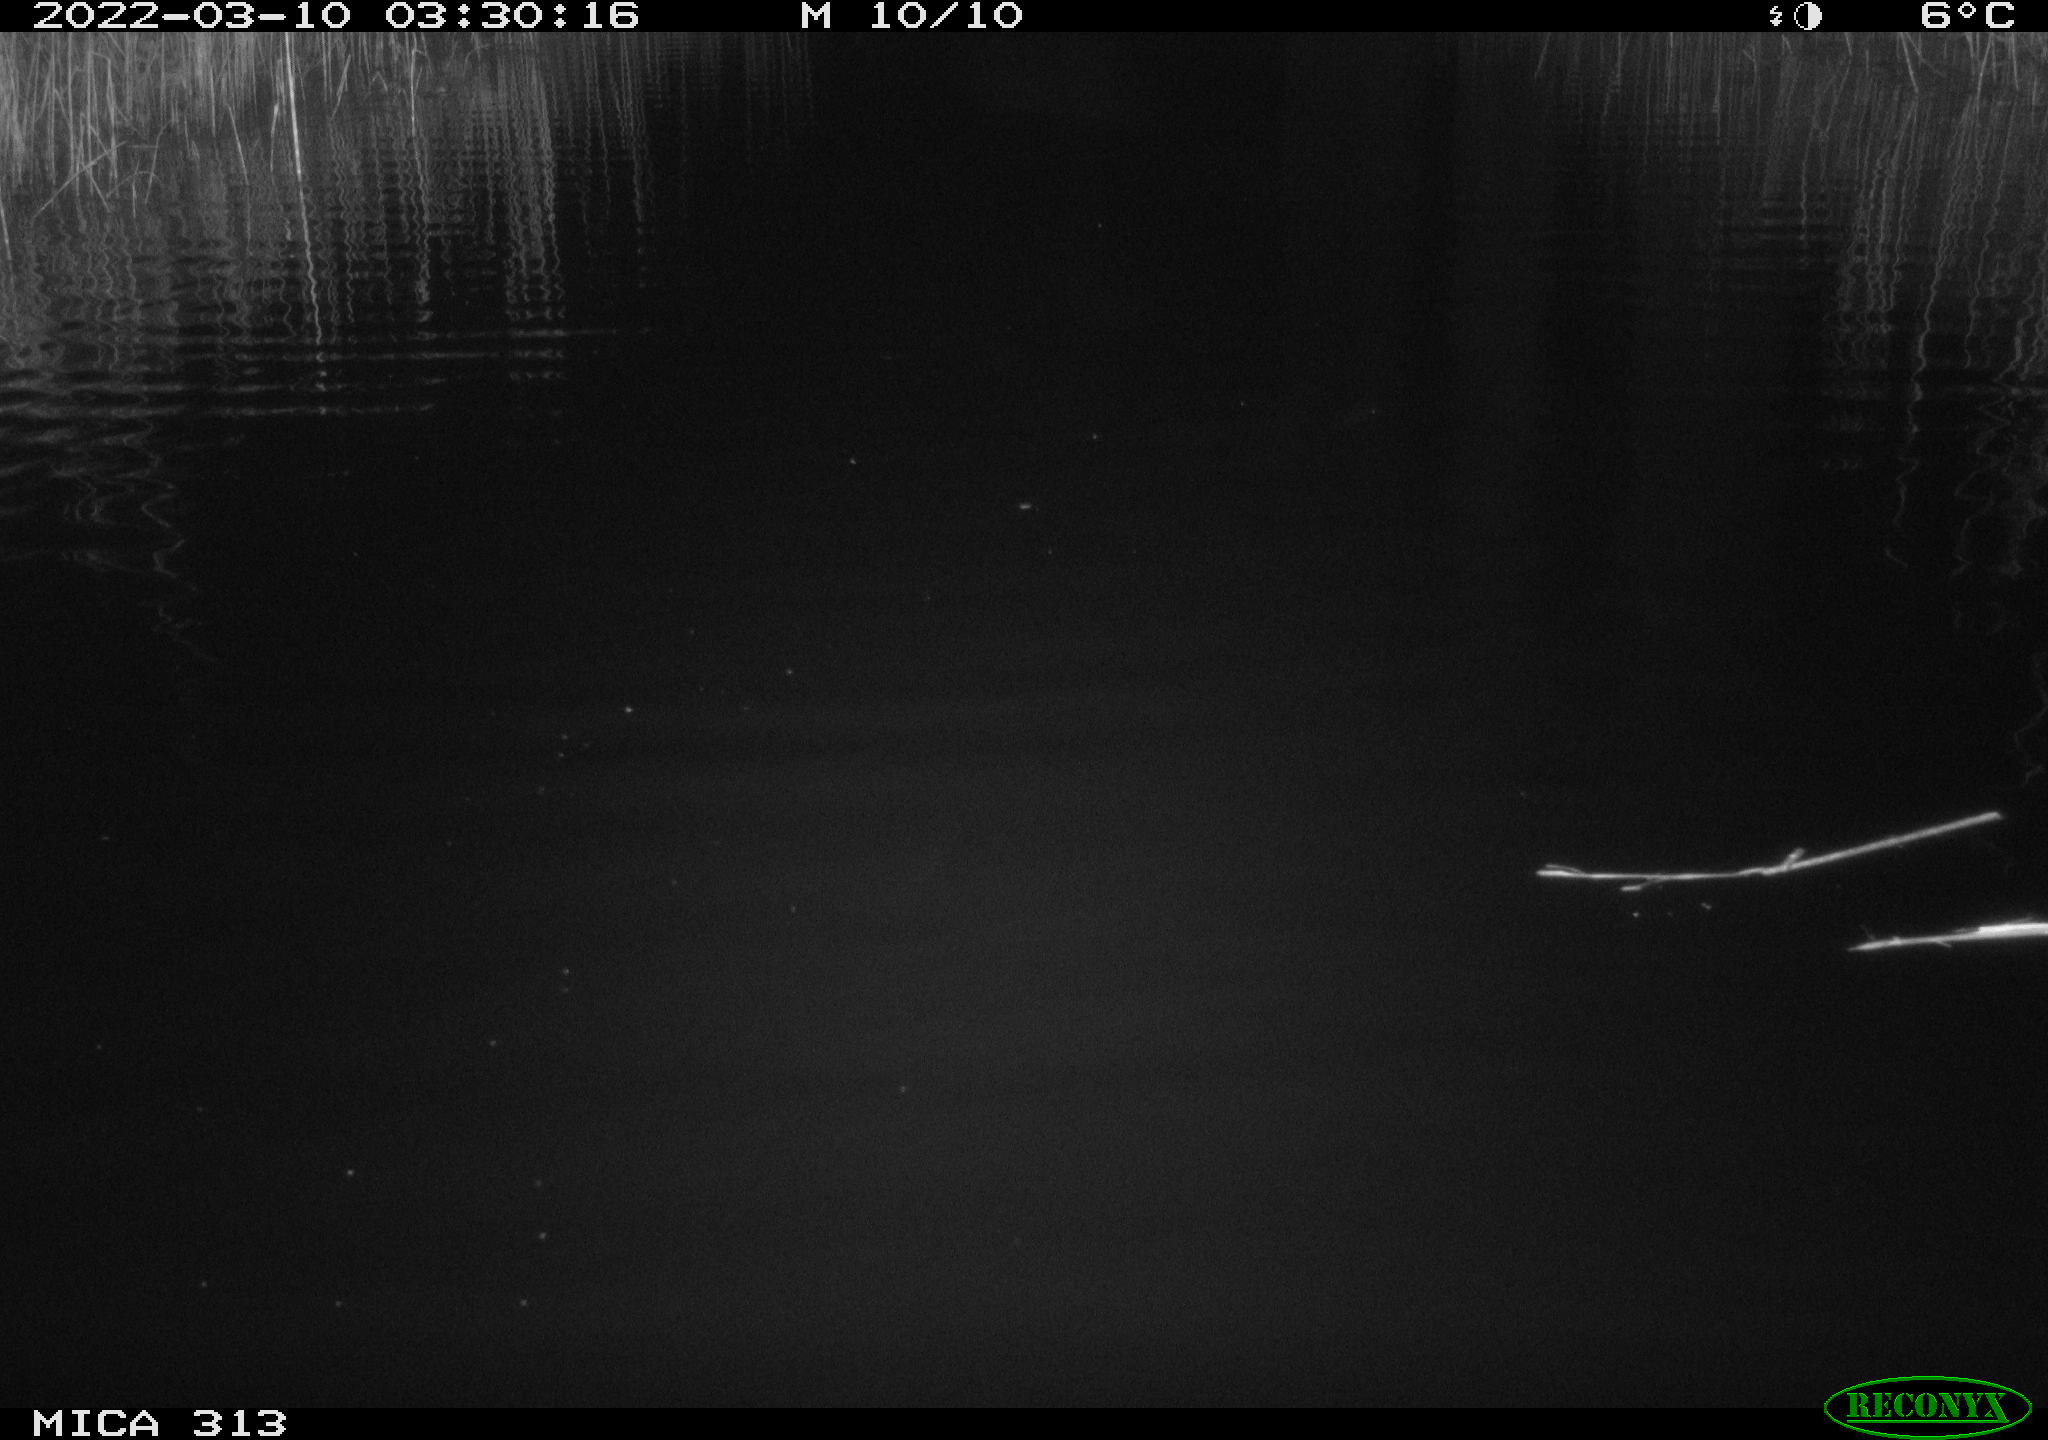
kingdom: Animalia
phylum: Chordata
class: Mammalia
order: Rodentia
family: Cricetidae
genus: Ondatra
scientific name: Ondatra zibethicus
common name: Muskrat
